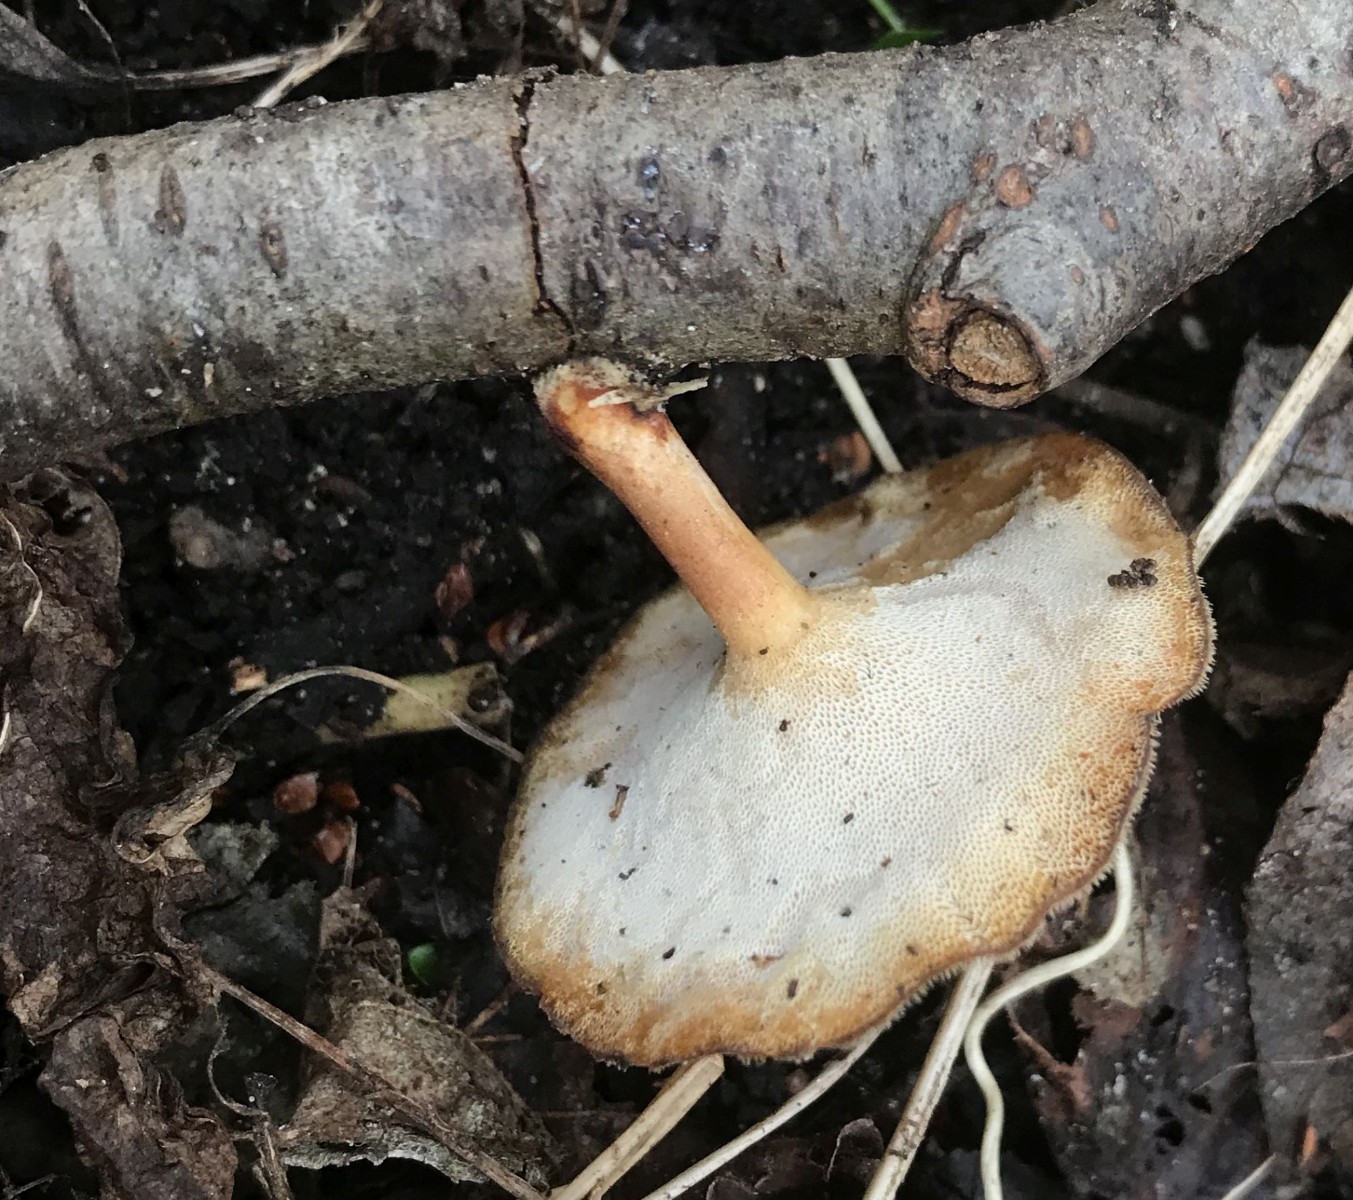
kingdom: Fungi
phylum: Basidiomycota
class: Agaricomycetes
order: Polyporales
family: Polyporaceae
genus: Lentinus
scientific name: Lentinus brumalis
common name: vinter-stilkporesvamp
